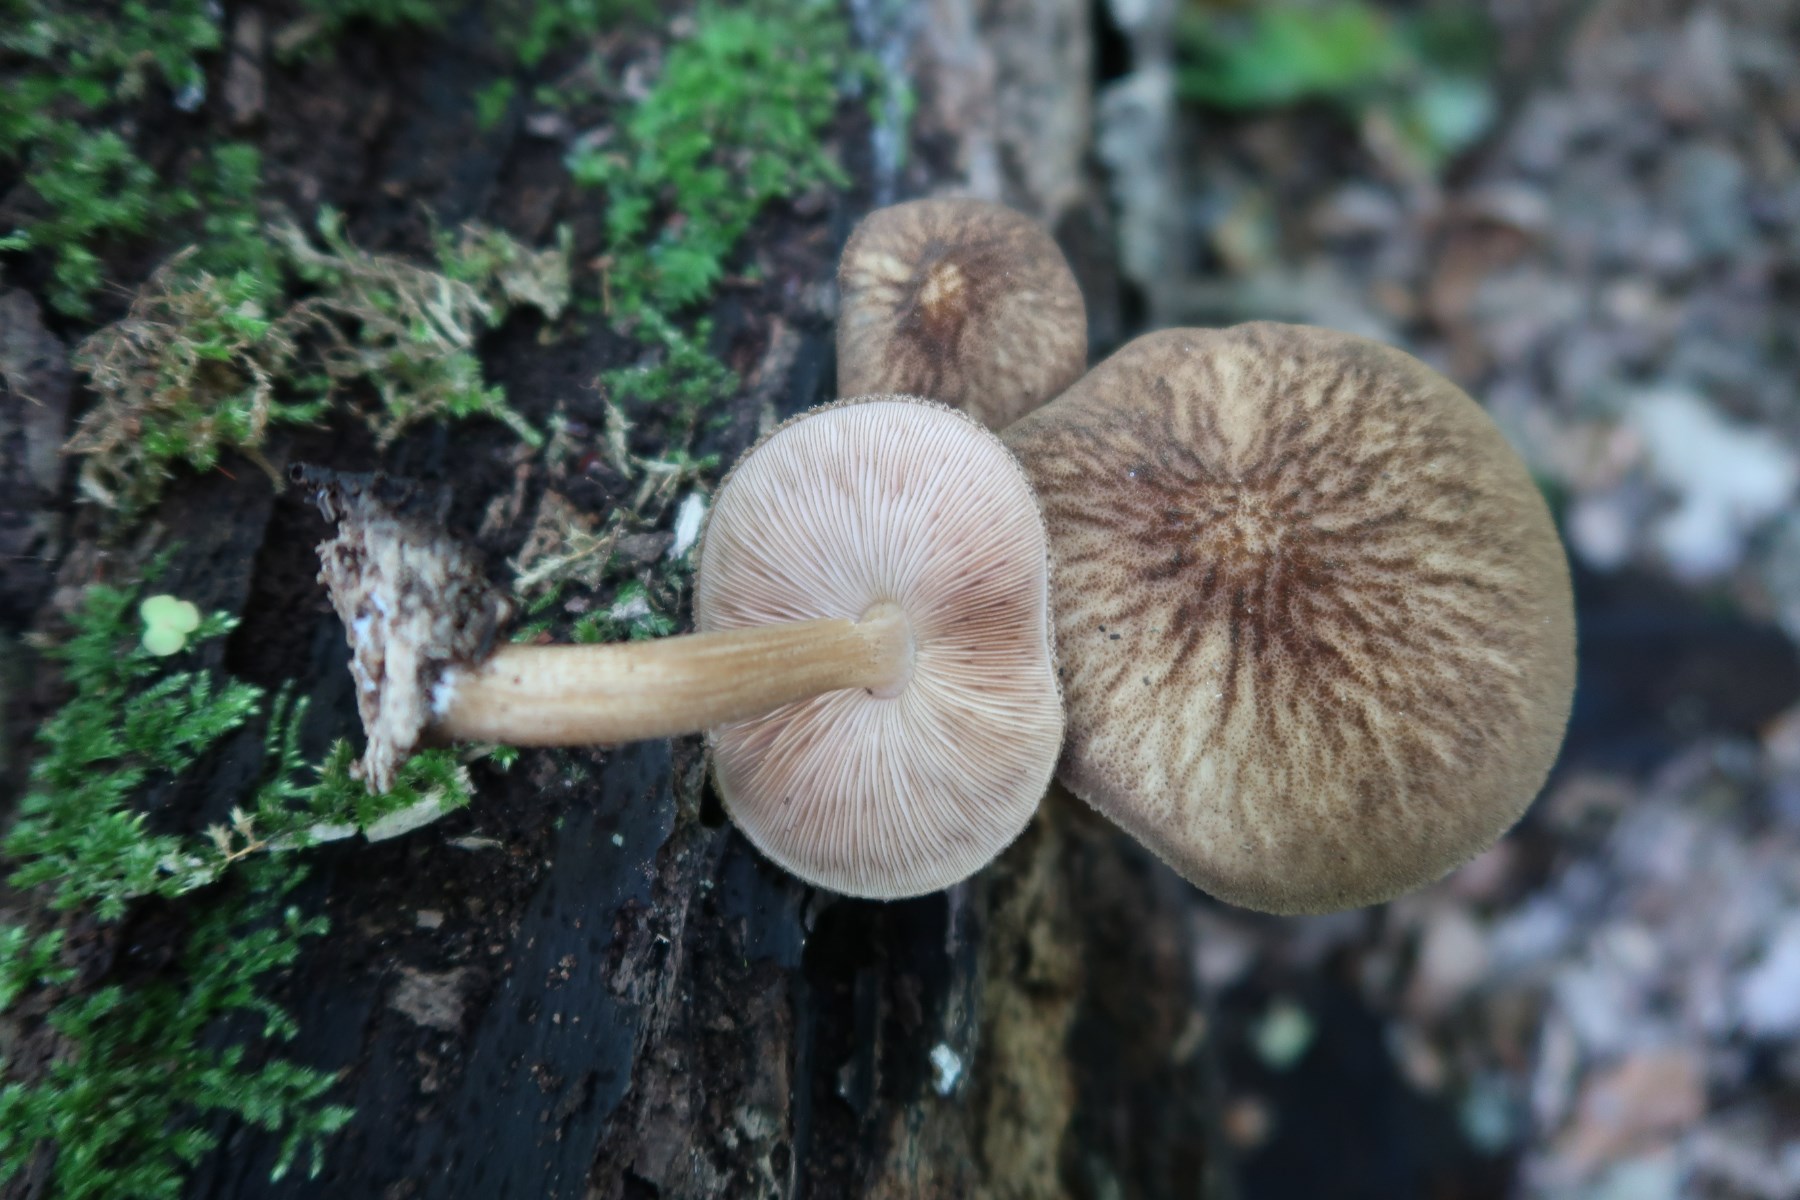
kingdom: Fungi
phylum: Basidiomycota
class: Agaricomycetes
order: Agaricales
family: Pluteaceae
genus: Pluteus
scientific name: Pluteus umbrosus
